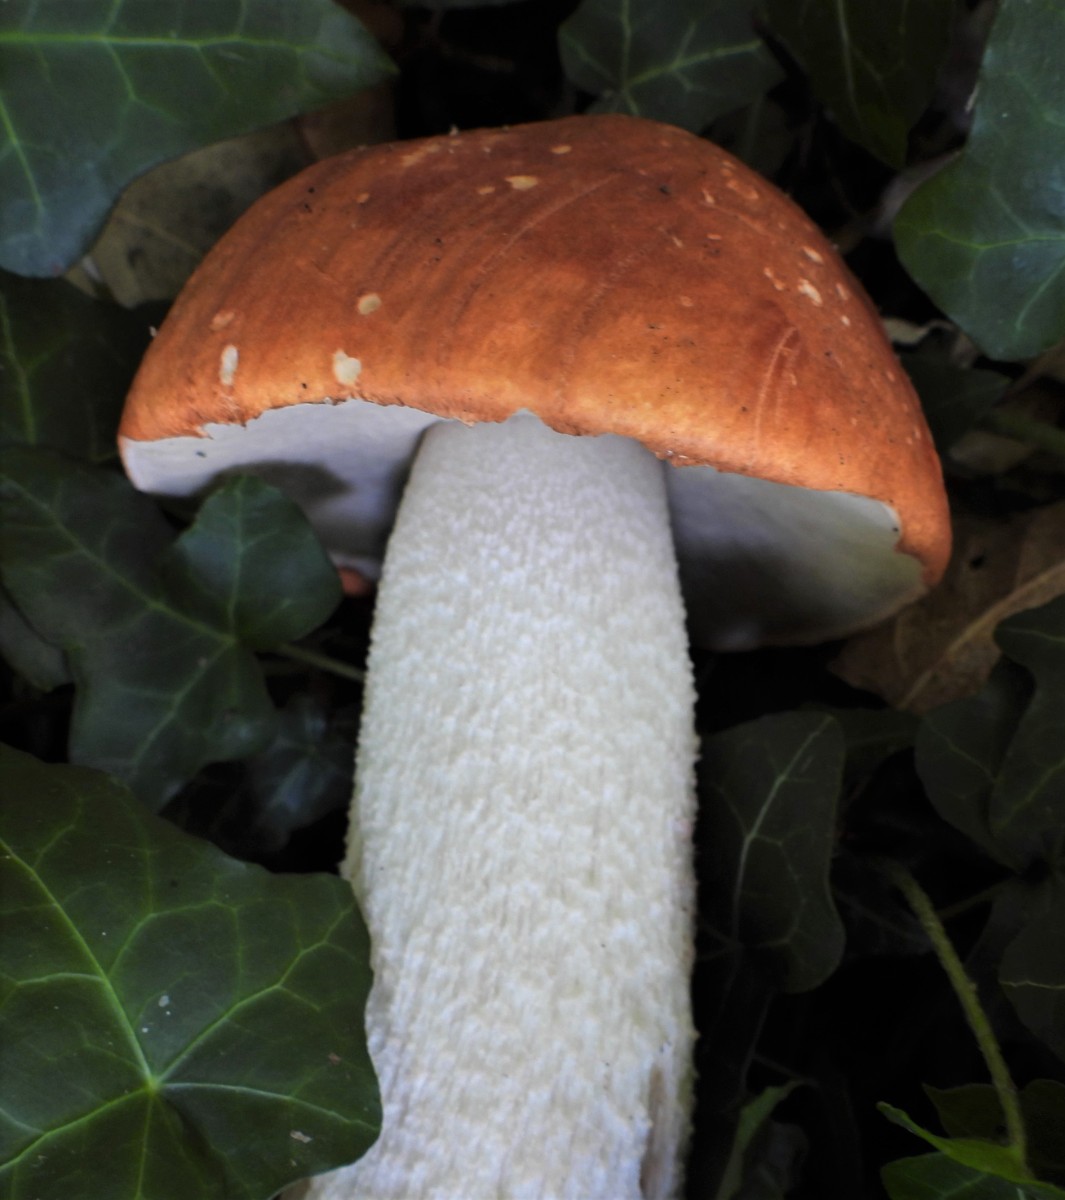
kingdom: Fungi
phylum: Basidiomycota
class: Agaricomycetes
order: Boletales
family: Boletaceae
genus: Leccinum
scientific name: Leccinum albostipitatum
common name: aspe-skælrørhat
